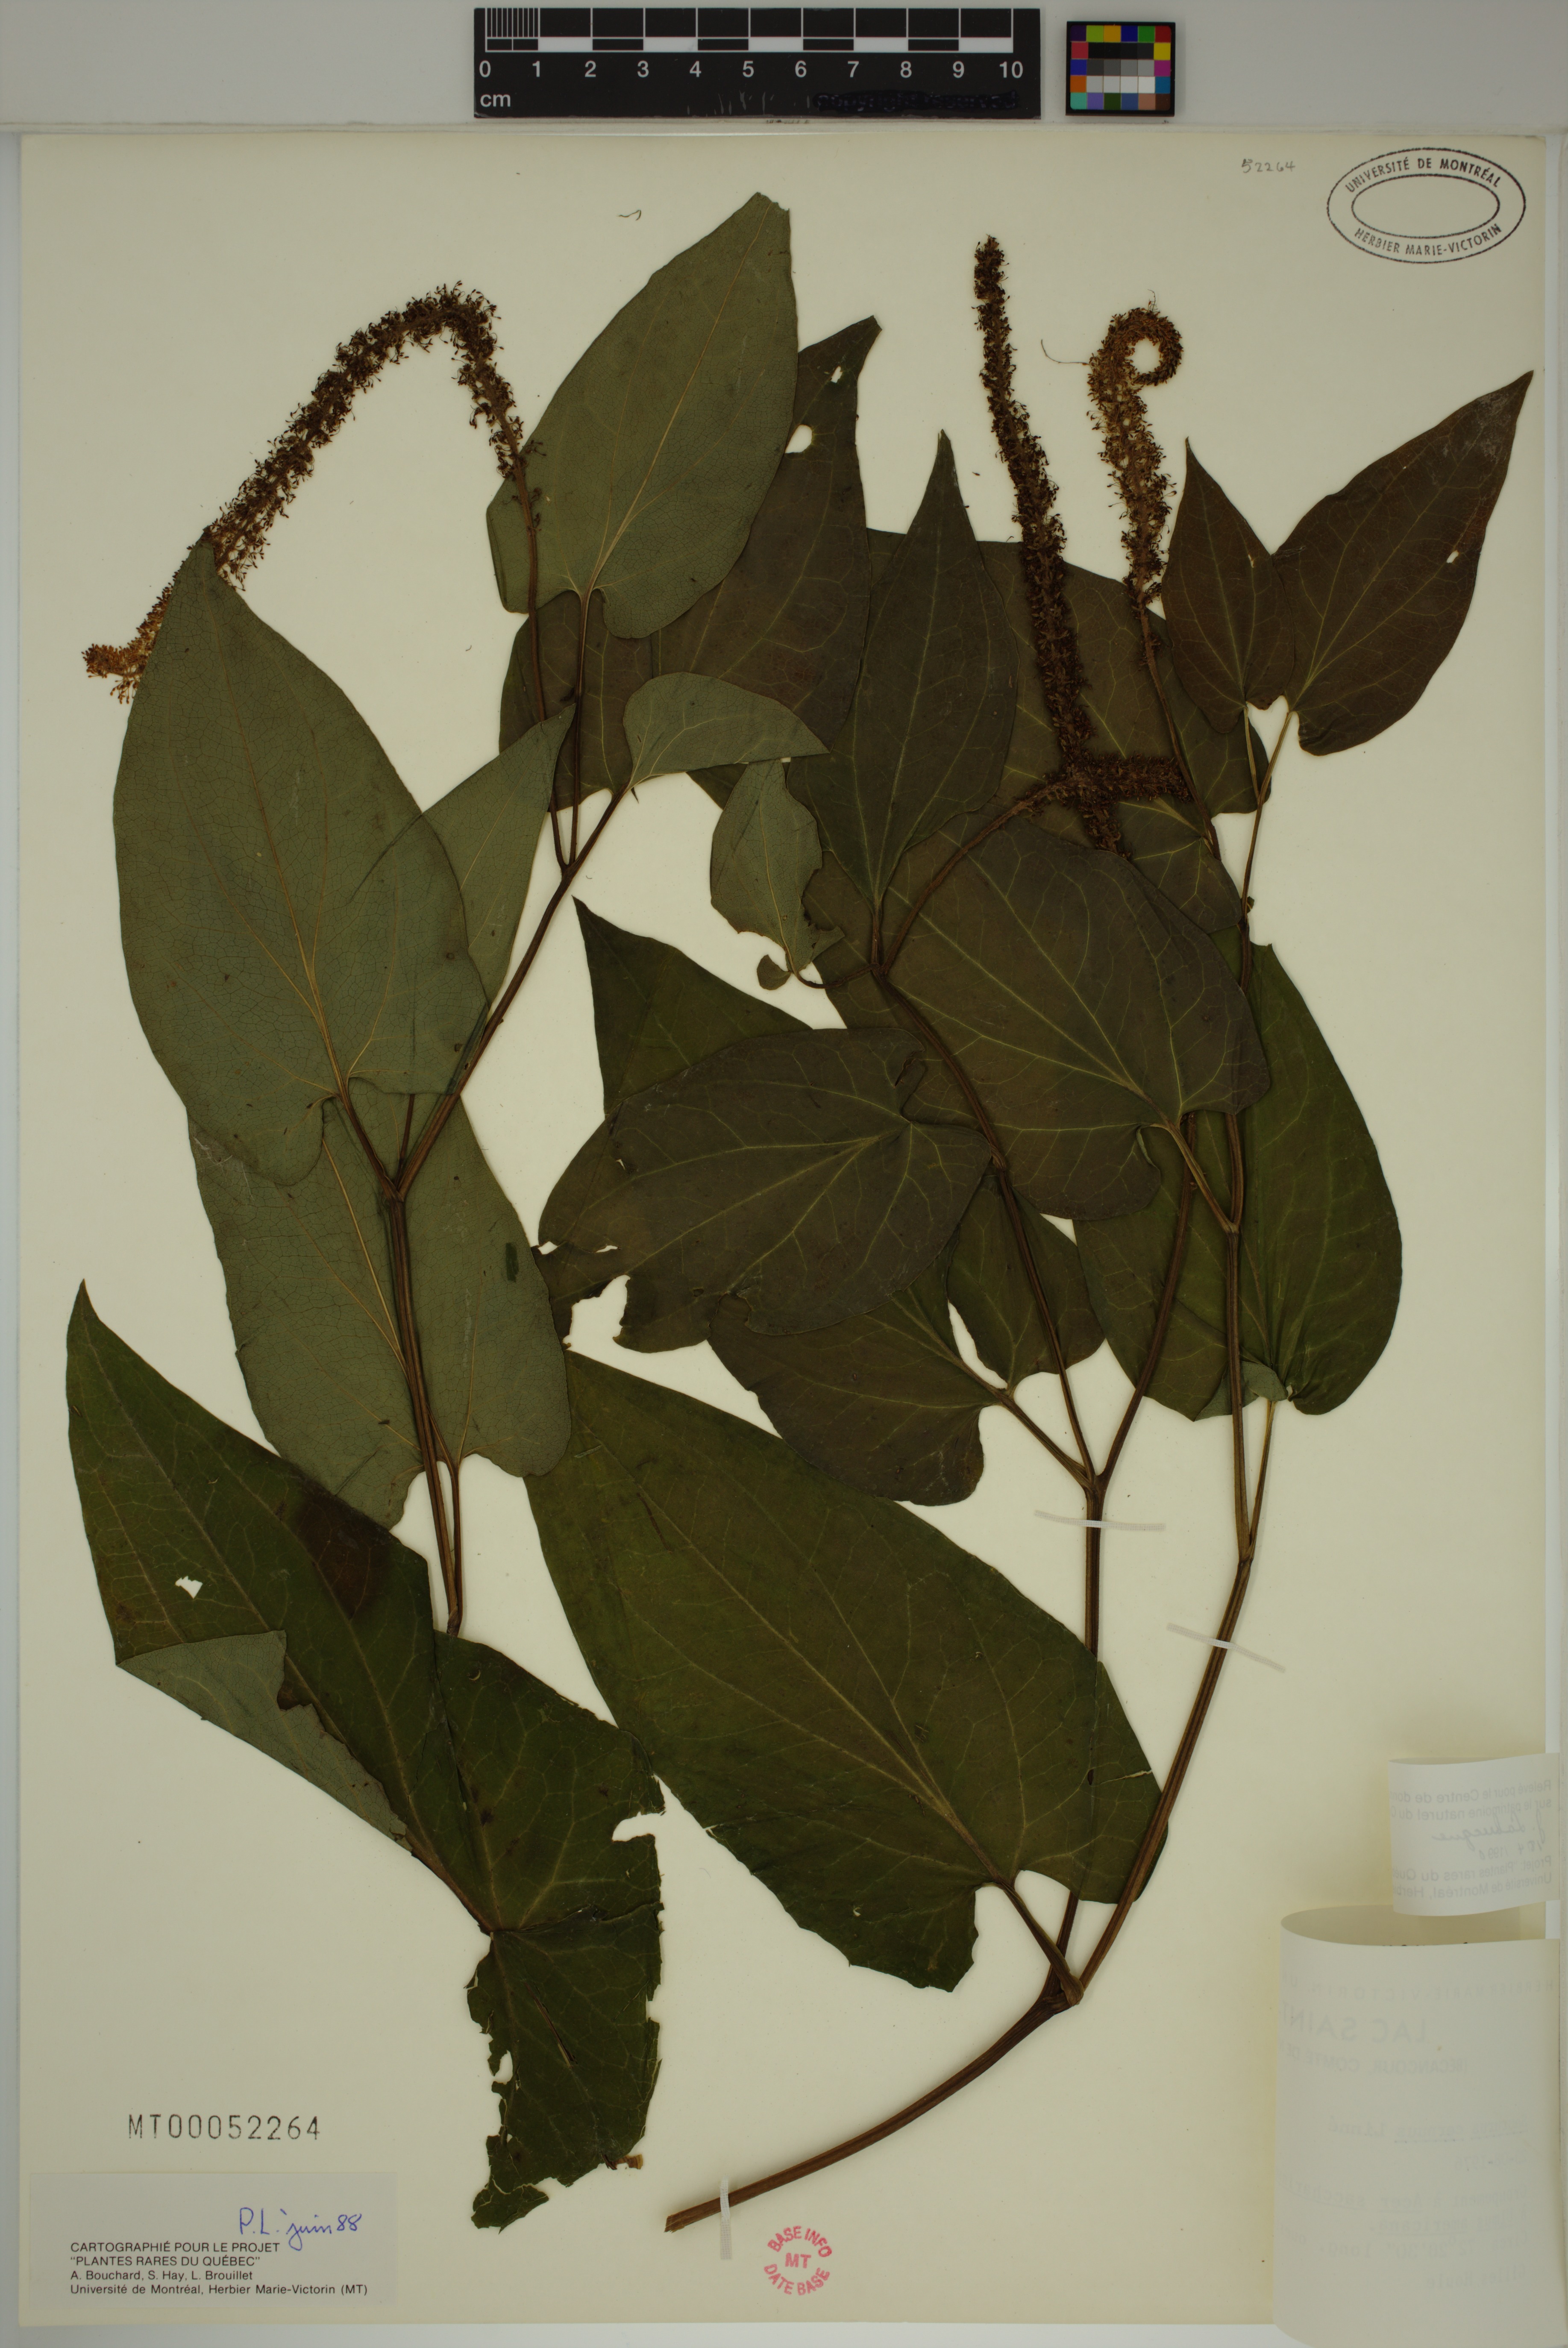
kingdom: Plantae
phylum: Tracheophyta
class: Magnoliopsida
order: Piperales
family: Saururaceae
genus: Saururus
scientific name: Saururus cernuus
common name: Lizard's-tail
